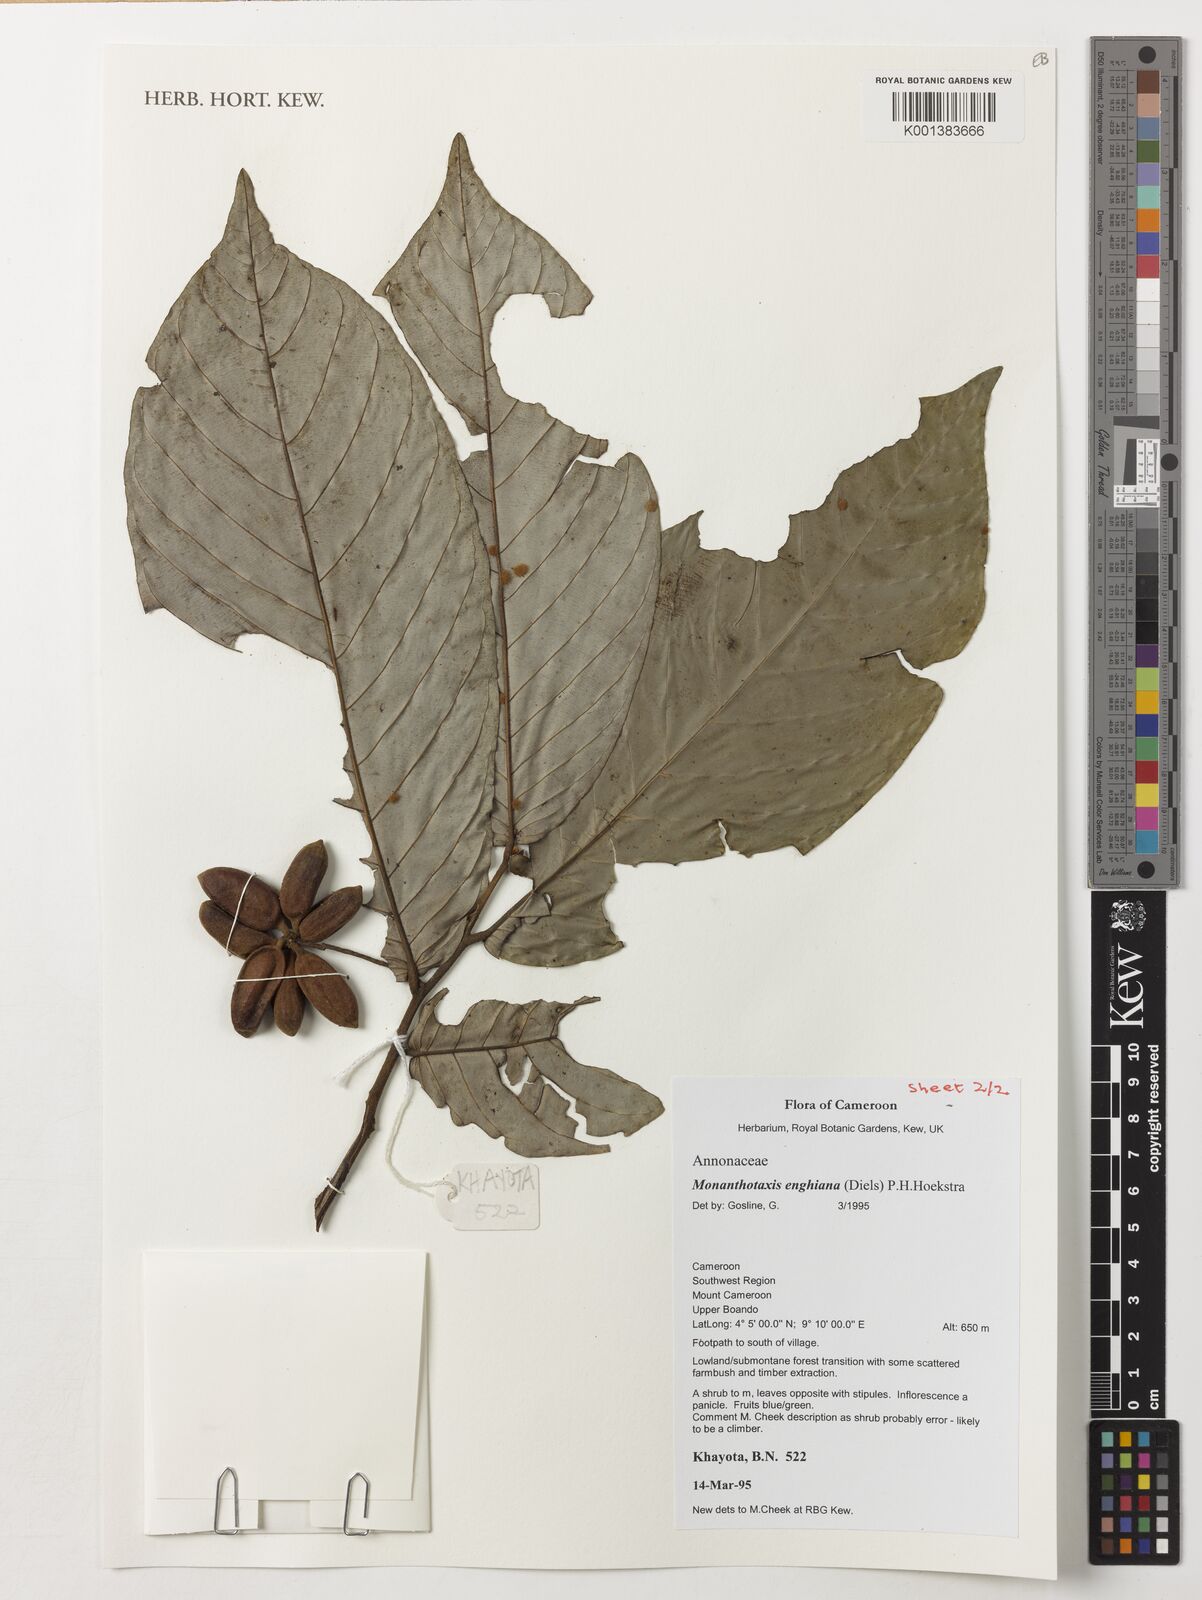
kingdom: Plantae
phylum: Tracheophyta
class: Magnoliopsida
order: Magnoliales
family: Annonaceae
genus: Friesodielsia
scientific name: Friesodielsia enghiana
